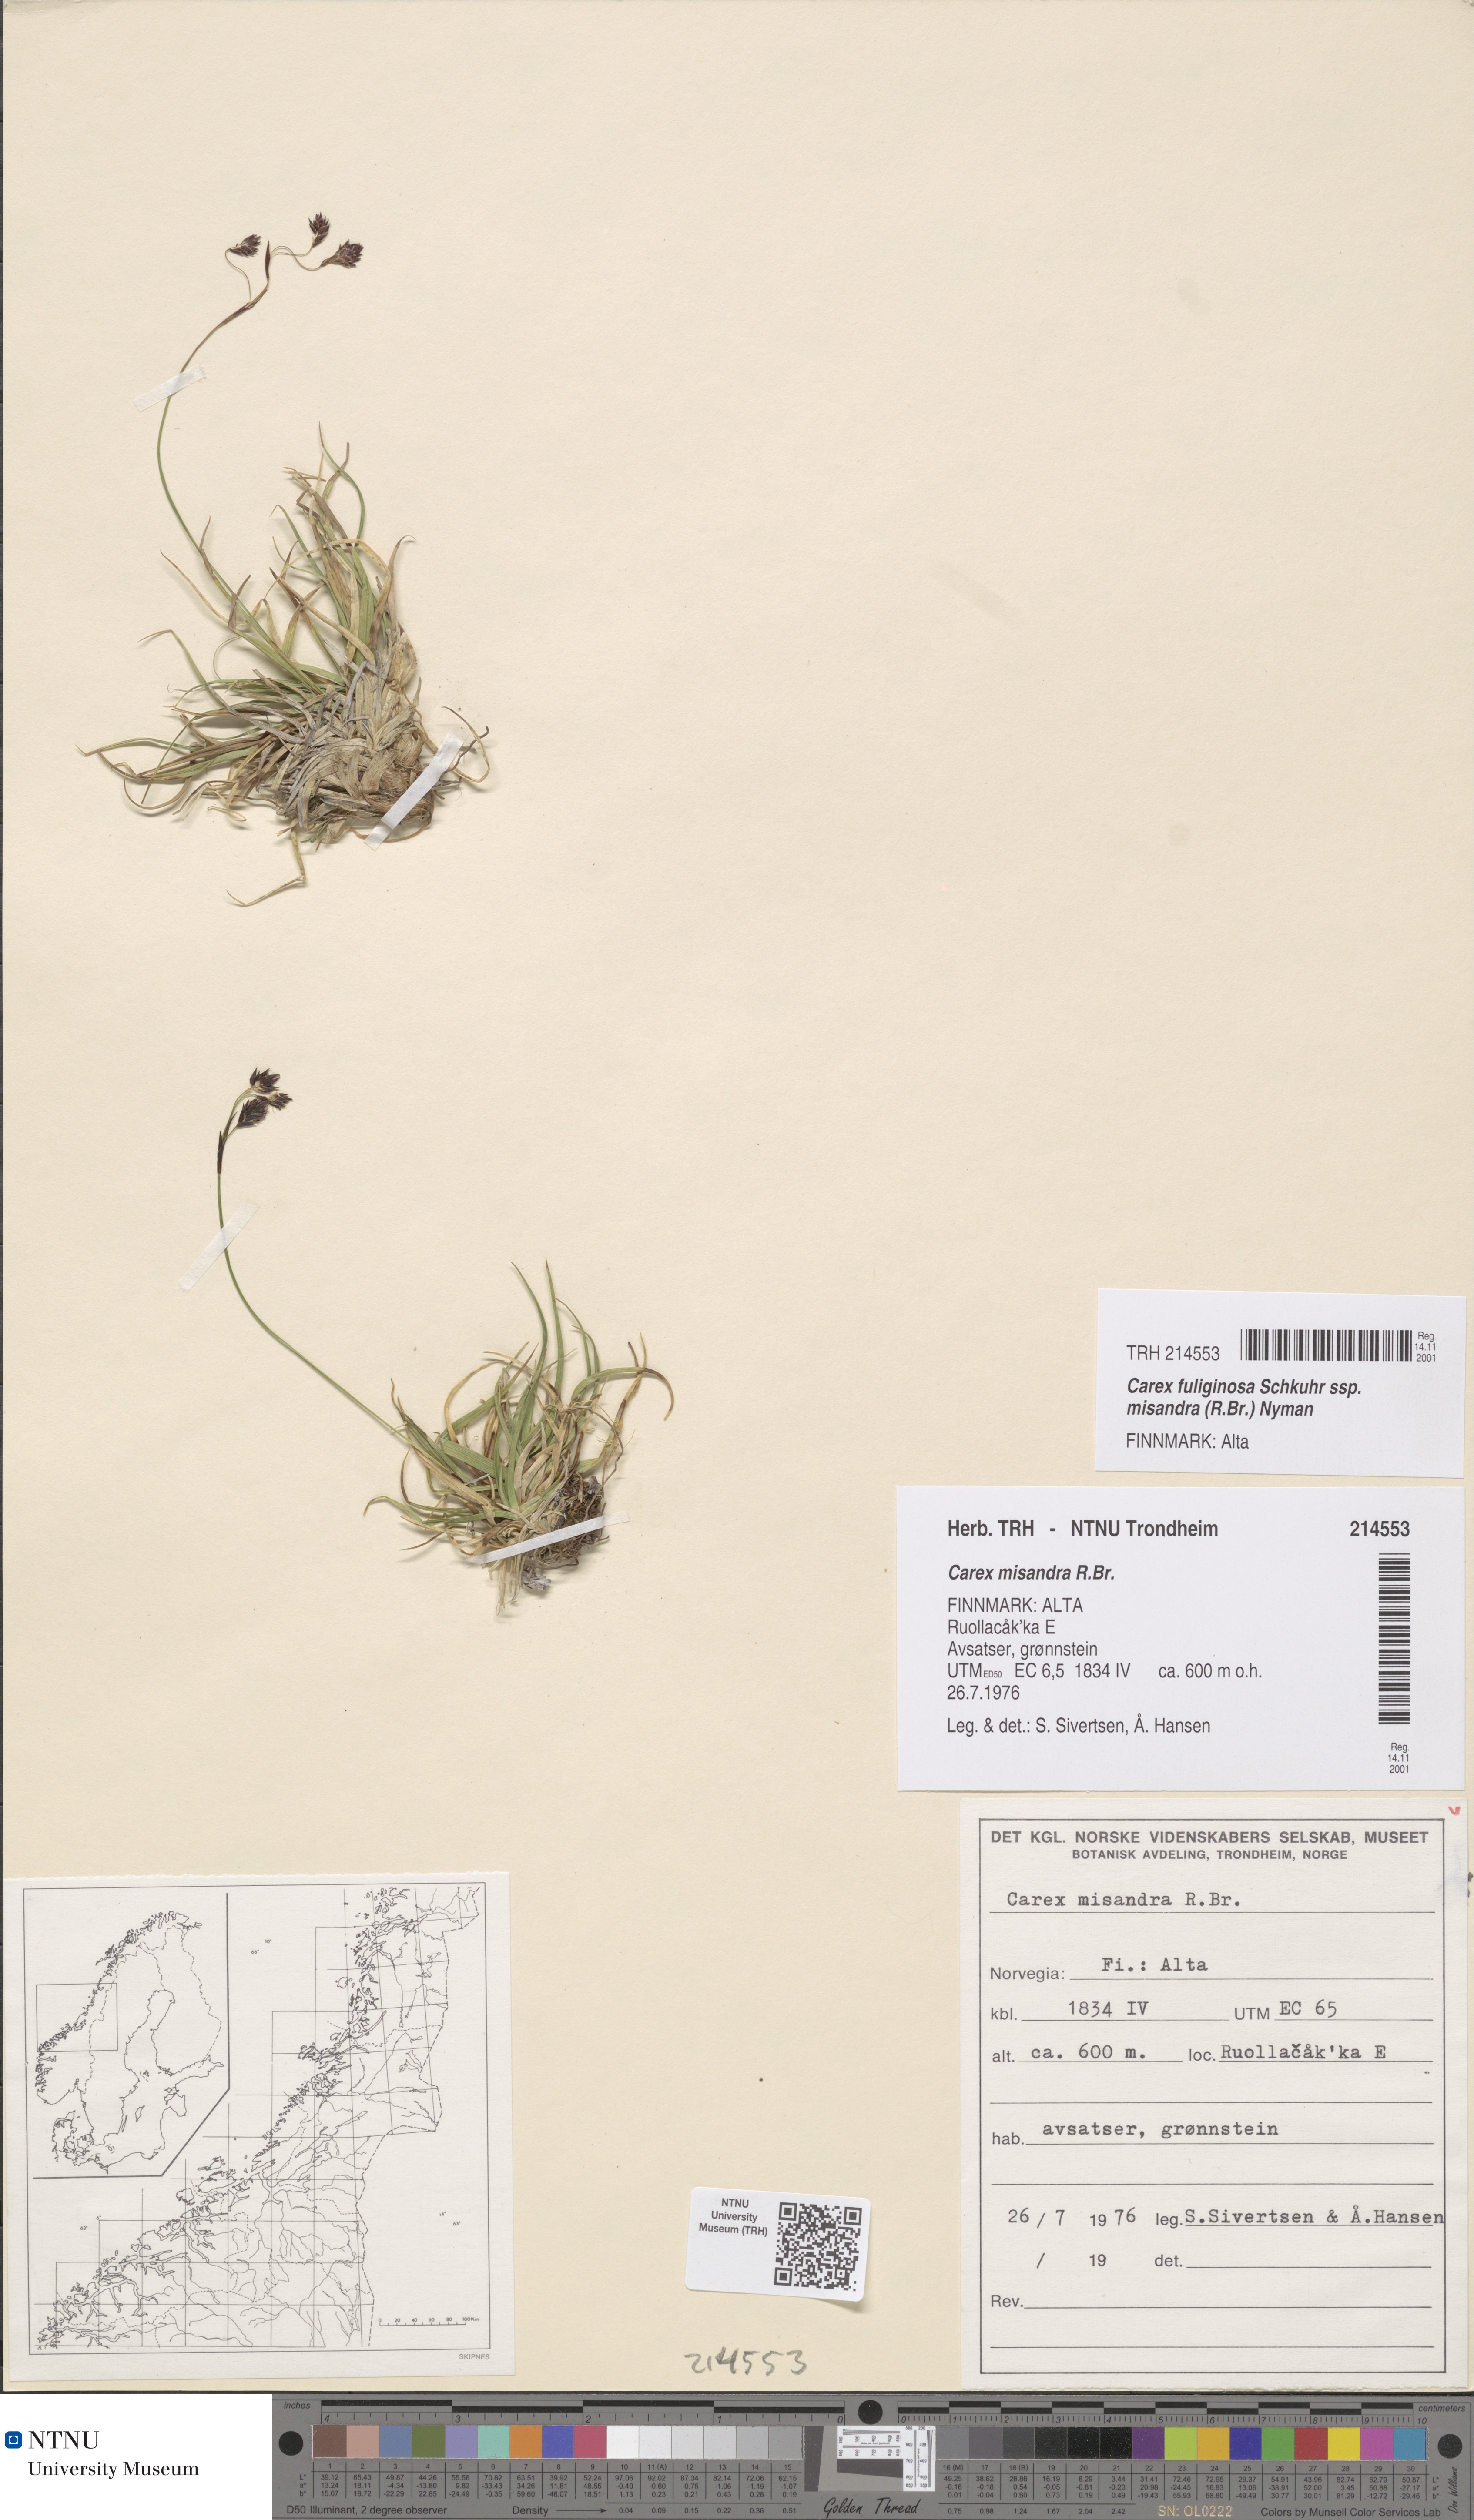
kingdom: Plantae
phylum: Tracheophyta
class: Liliopsida
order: Poales
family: Cyperaceae
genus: Carex
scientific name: Carex fuliginosa
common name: Few-flowered sedge
